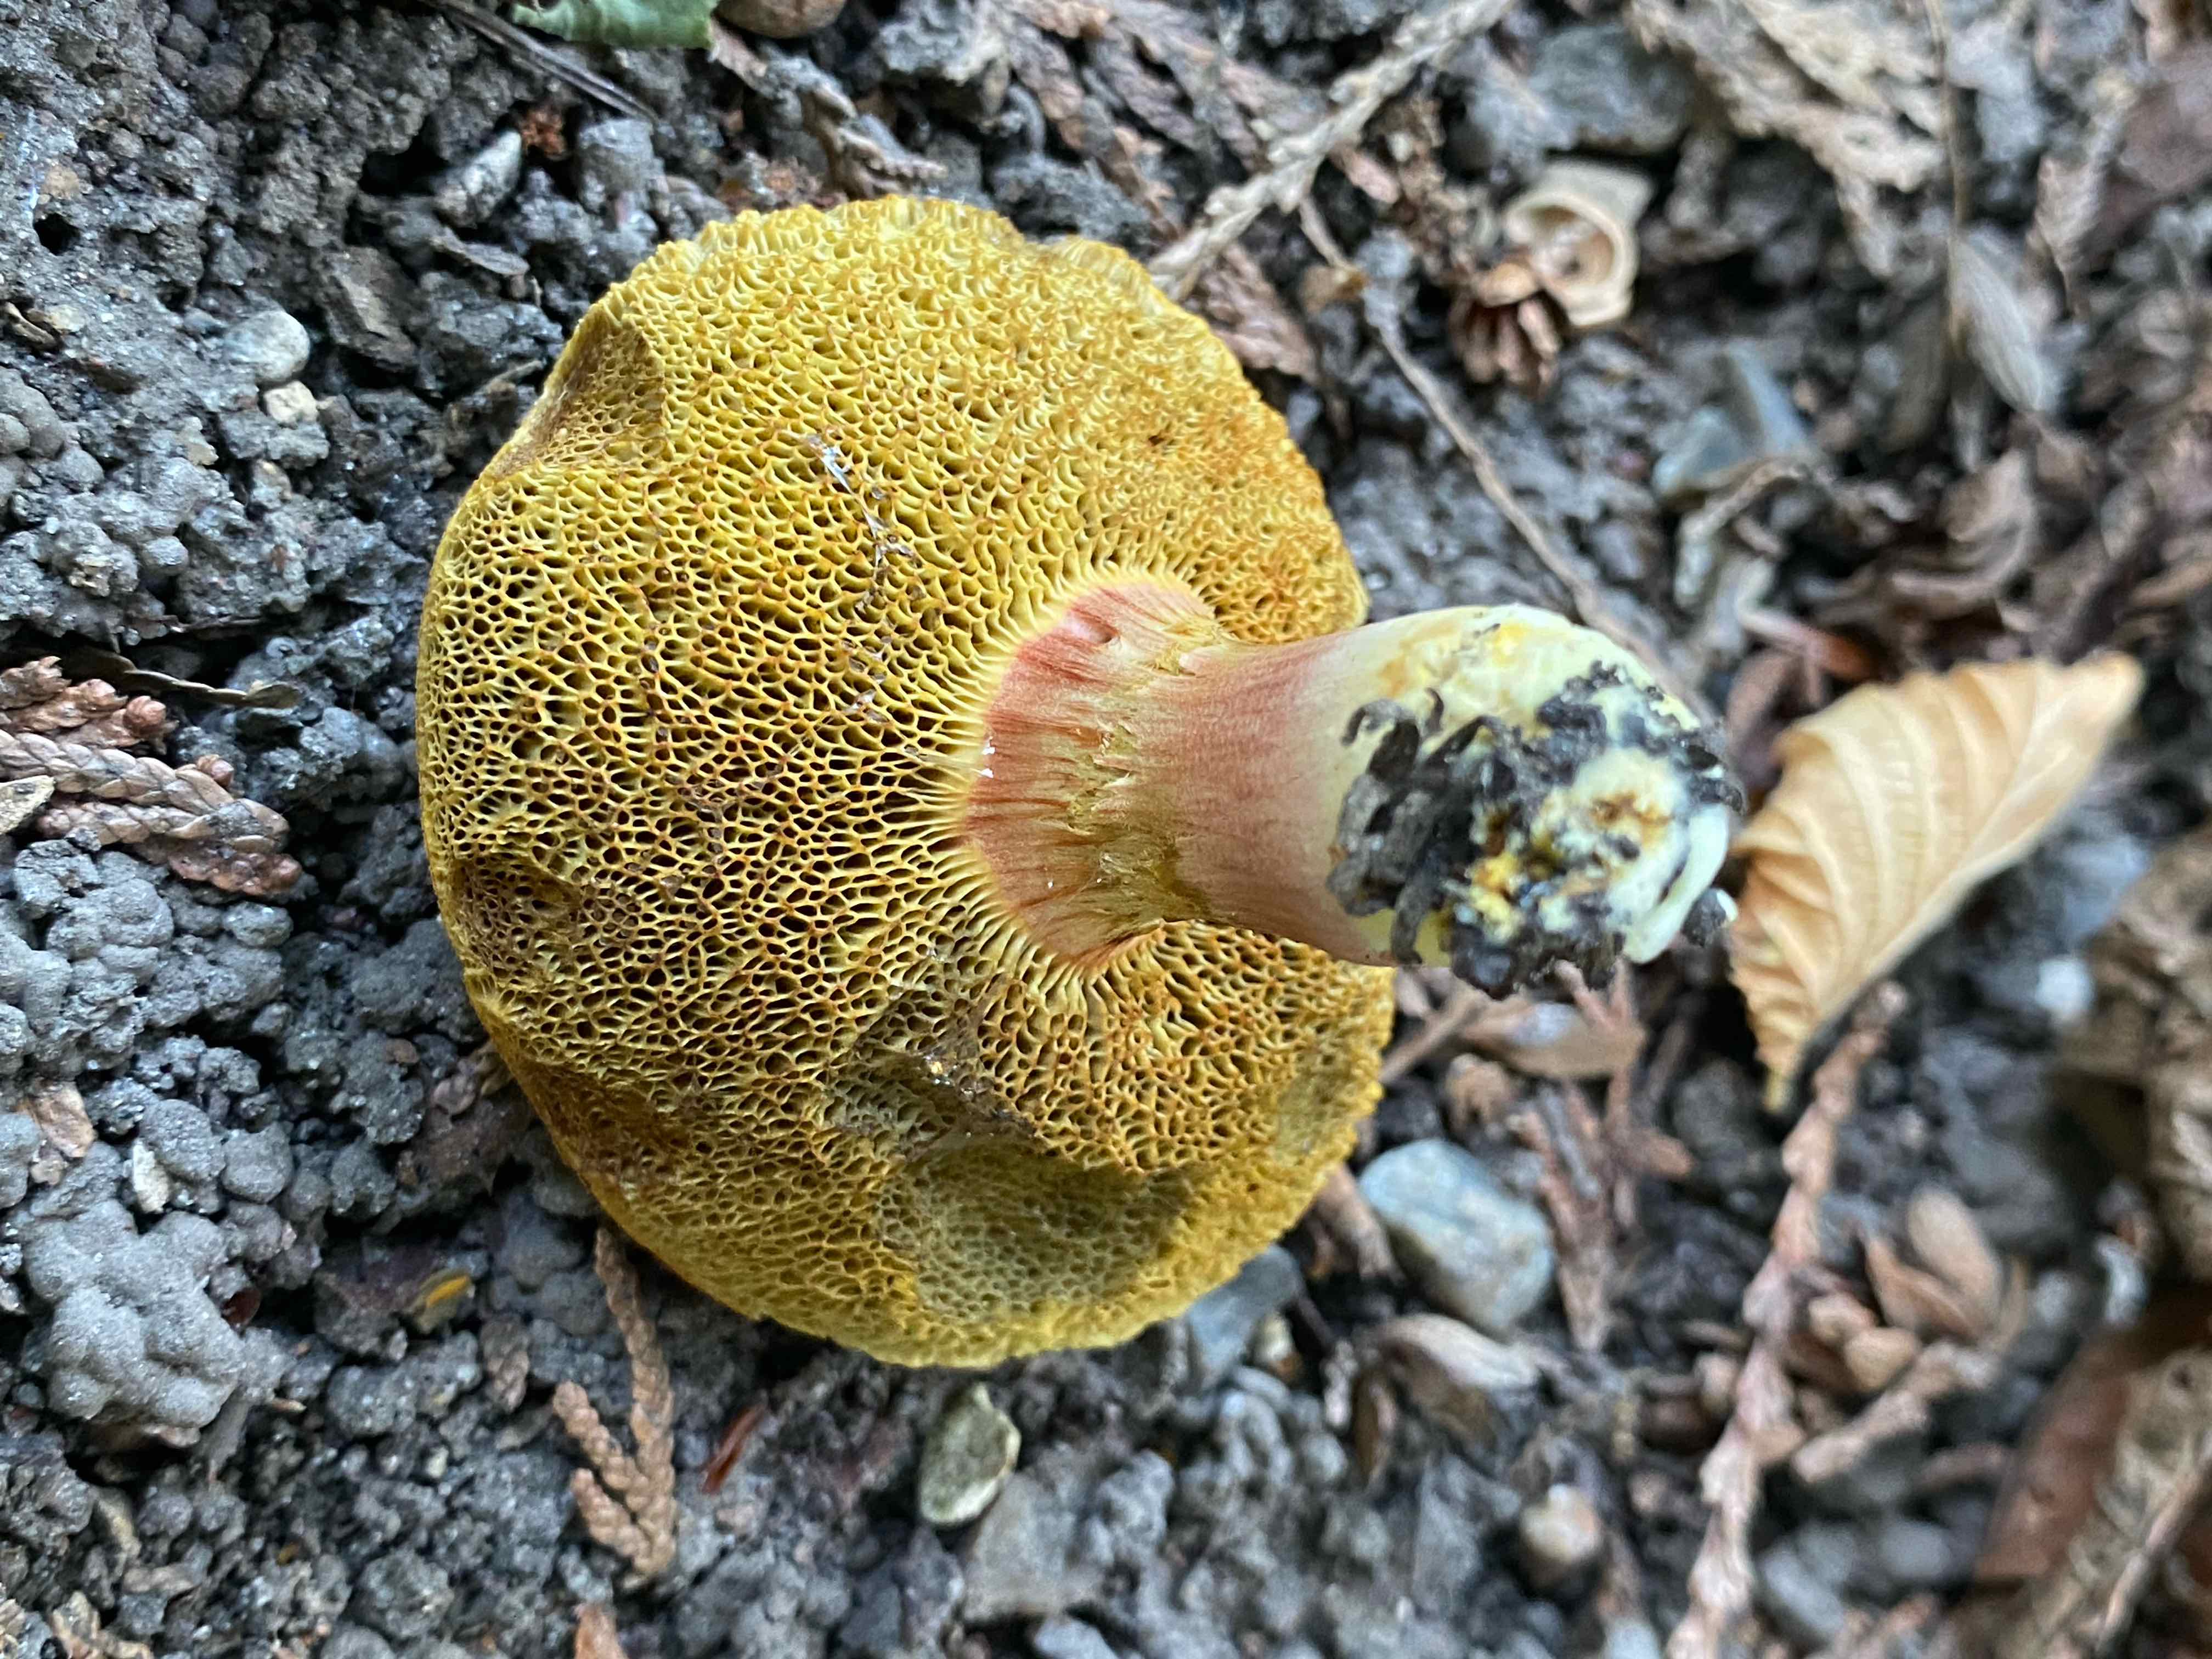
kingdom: Fungi
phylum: Basidiomycota
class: Agaricomycetes
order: Boletales
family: Boletaceae
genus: Hortiboletus
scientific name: Hortiboletus
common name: dværgrørhat
